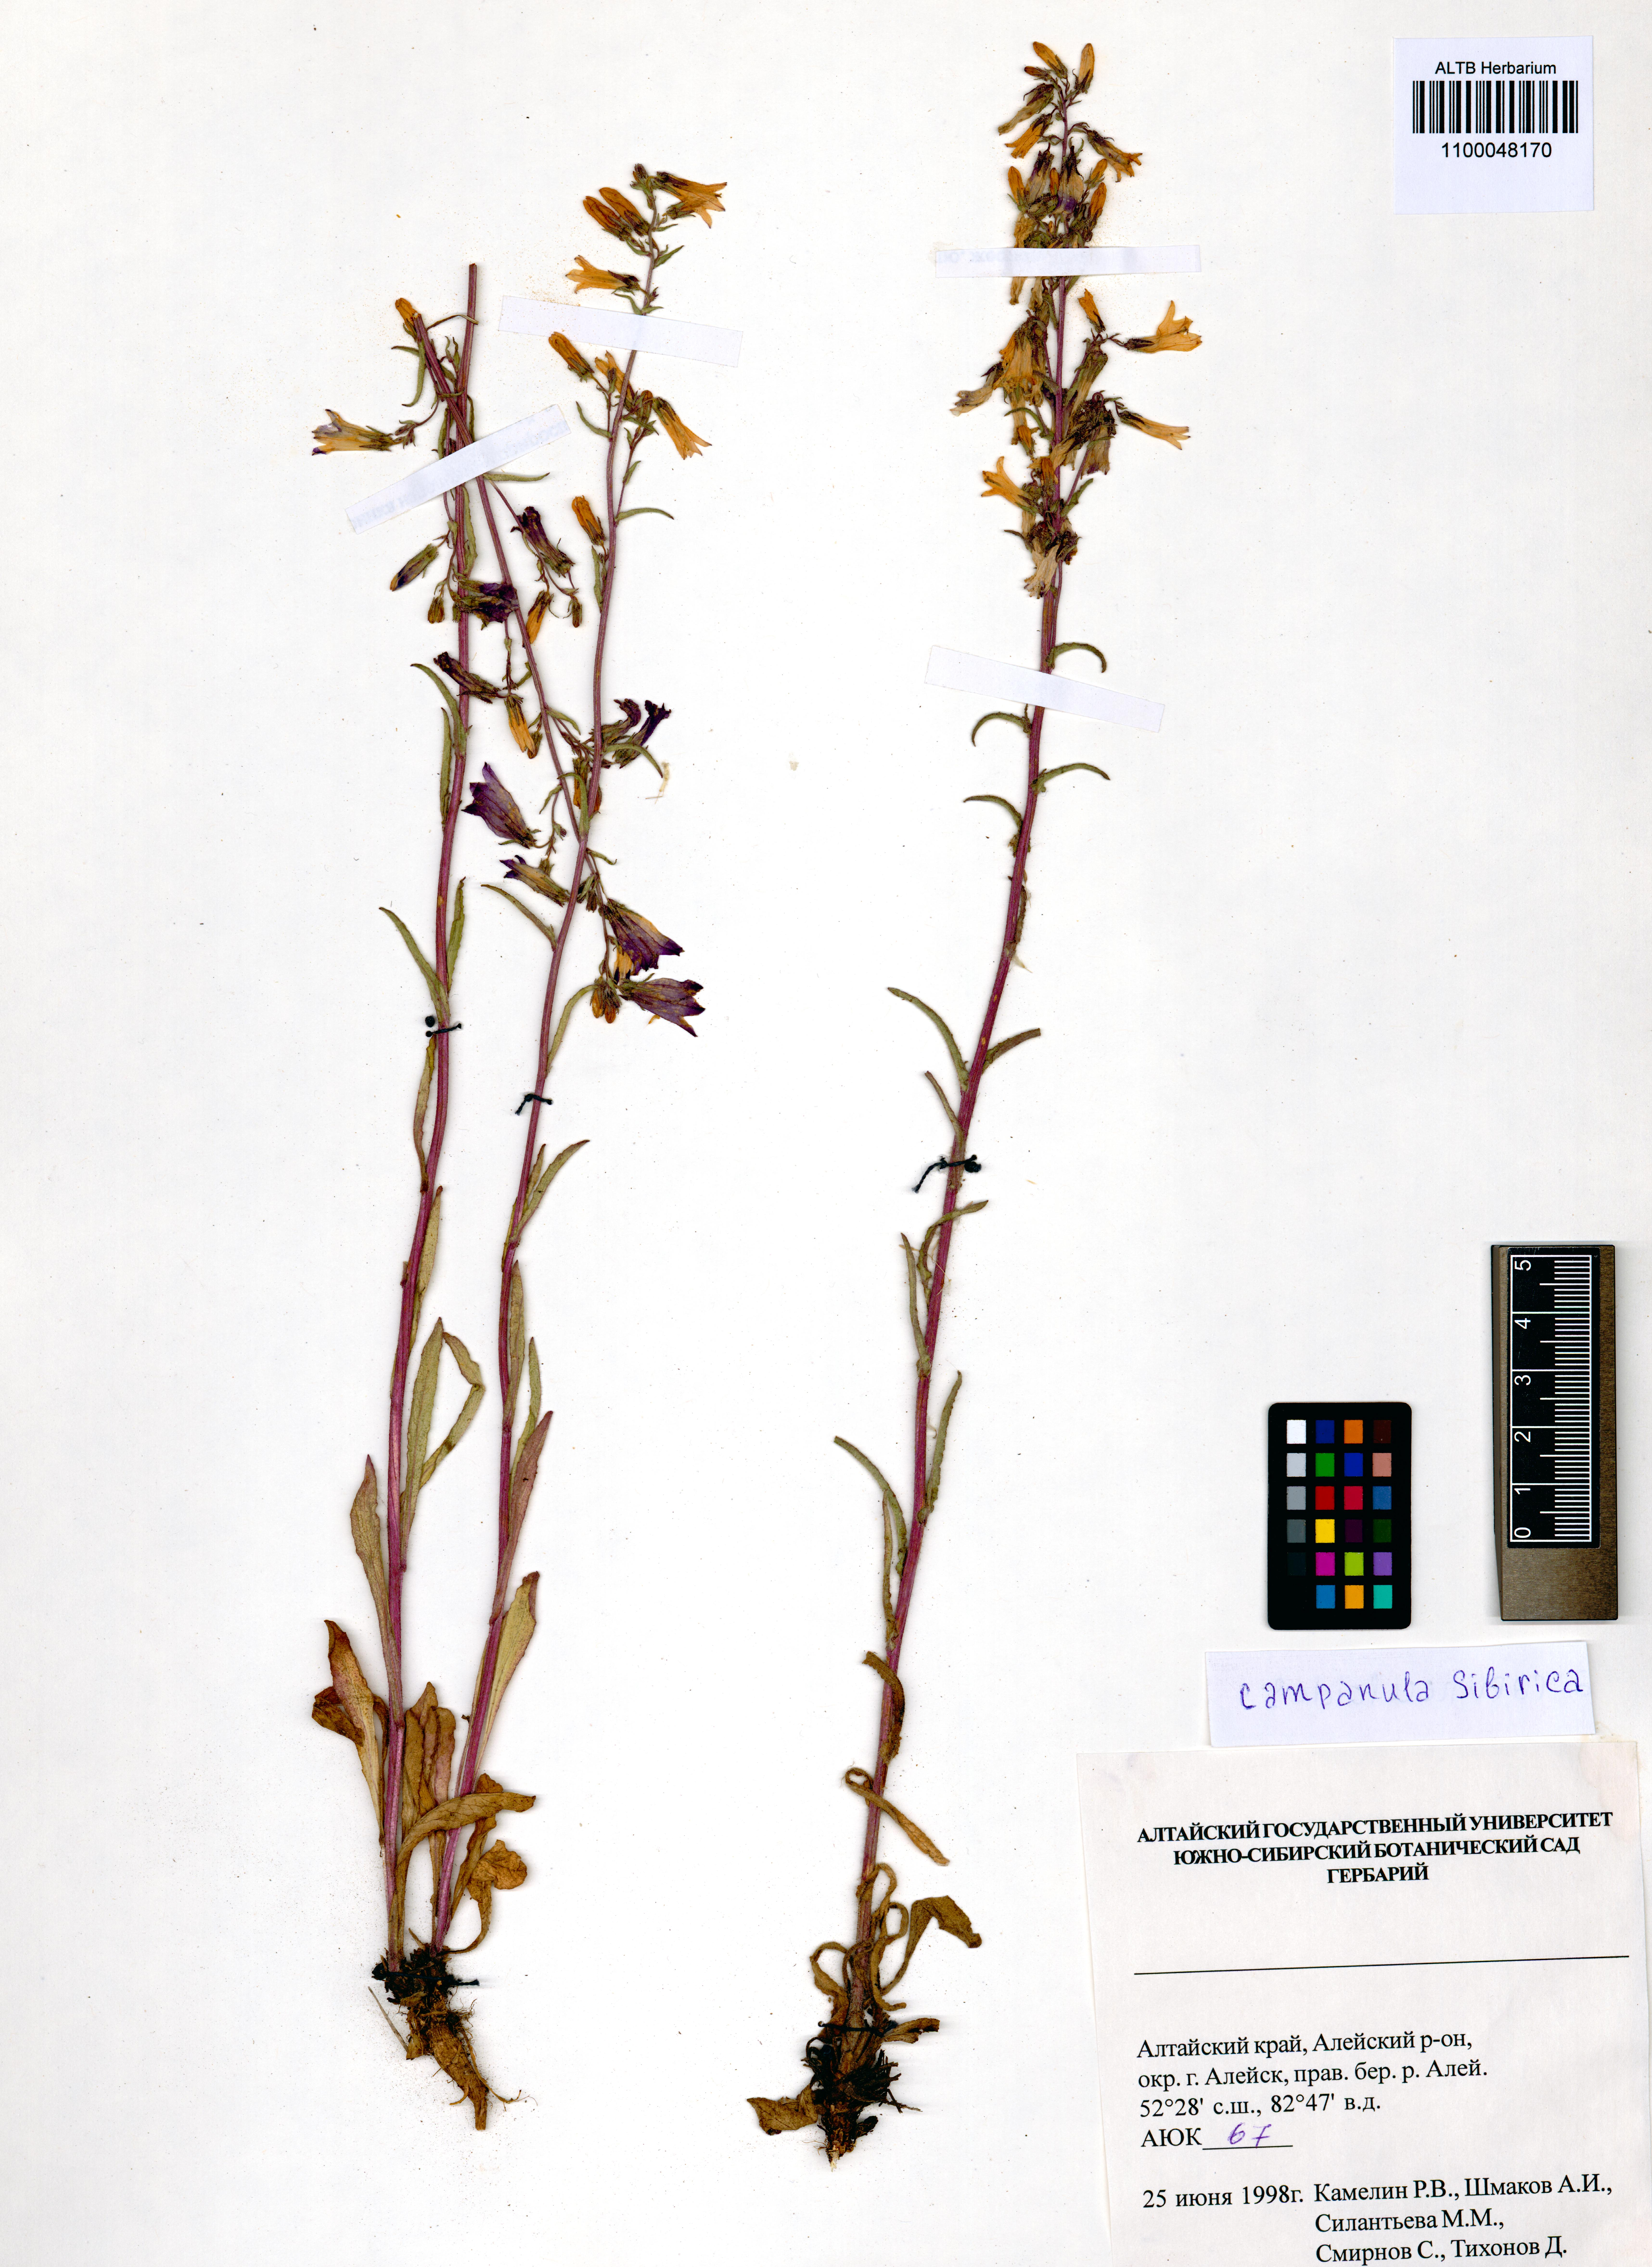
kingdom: Plantae
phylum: Tracheophyta
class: Magnoliopsida
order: Asterales
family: Campanulaceae
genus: Campanula
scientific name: Campanula sibirica
